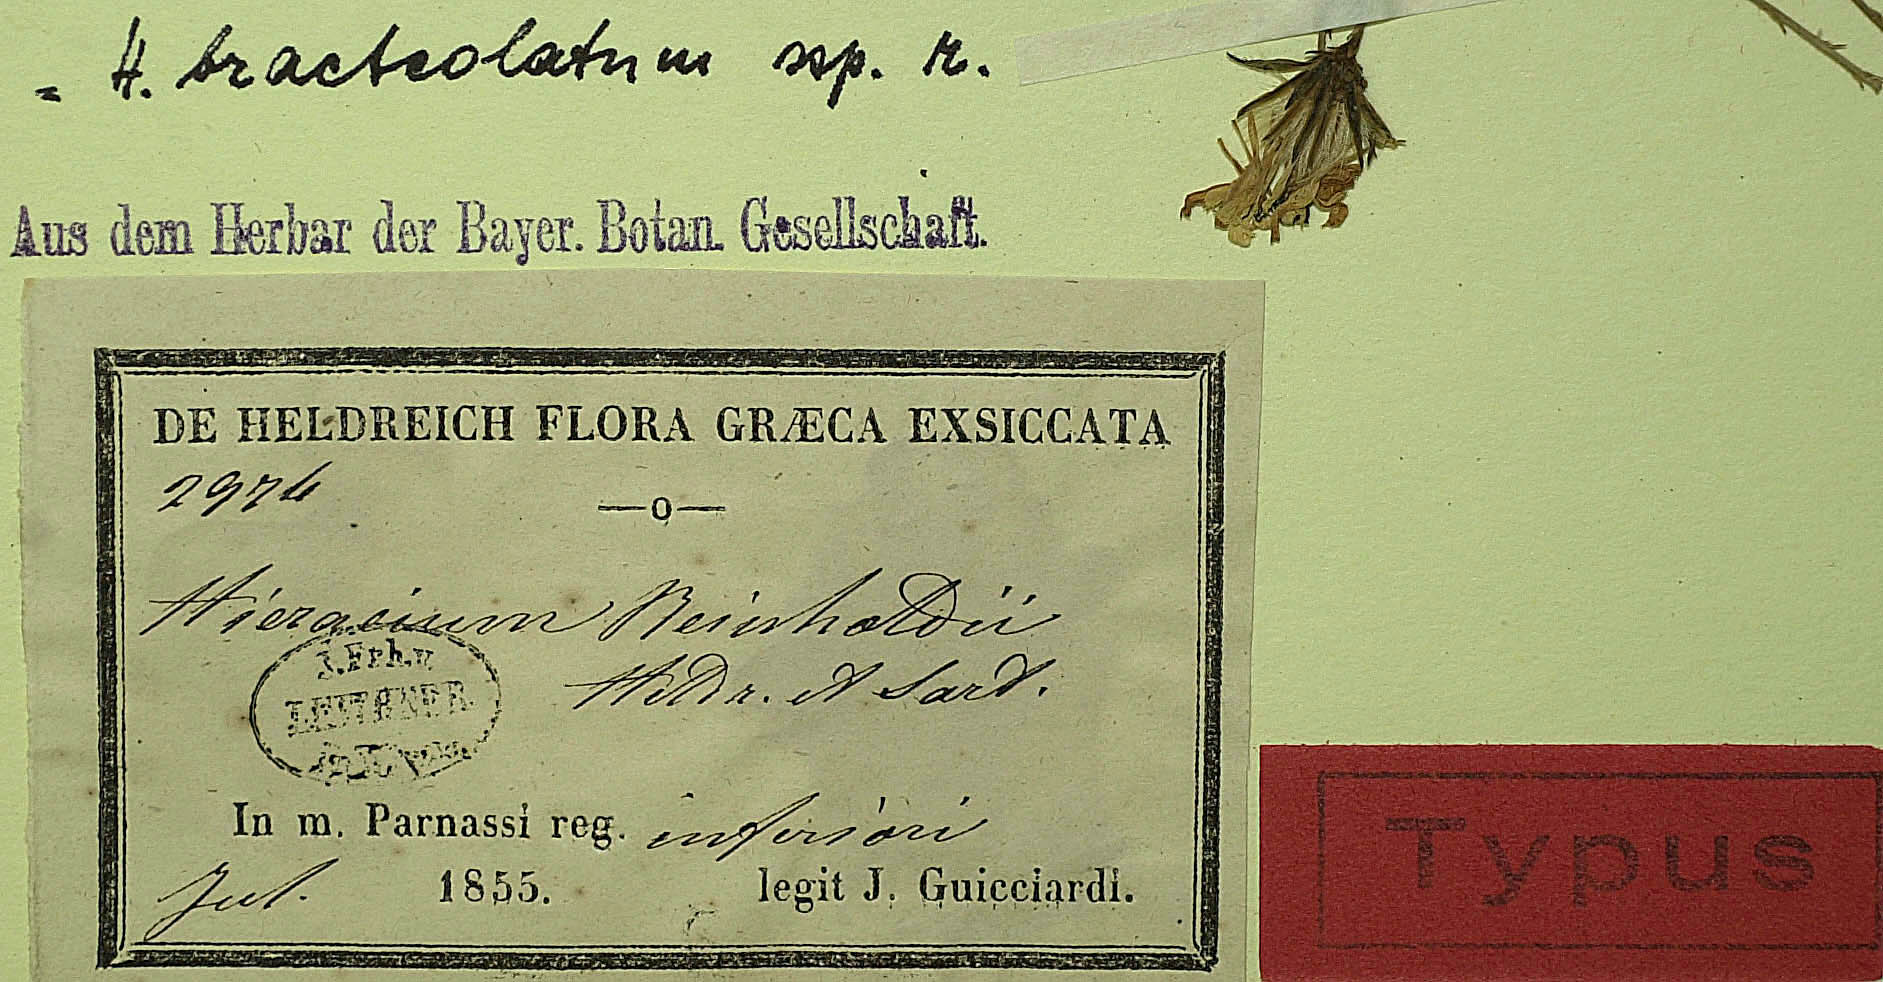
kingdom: Plantae
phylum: Tracheophyta
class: Magnoliopsida
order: Asterales
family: Asteraceae
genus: Hieracium
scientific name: Hieracium bracteolatum
